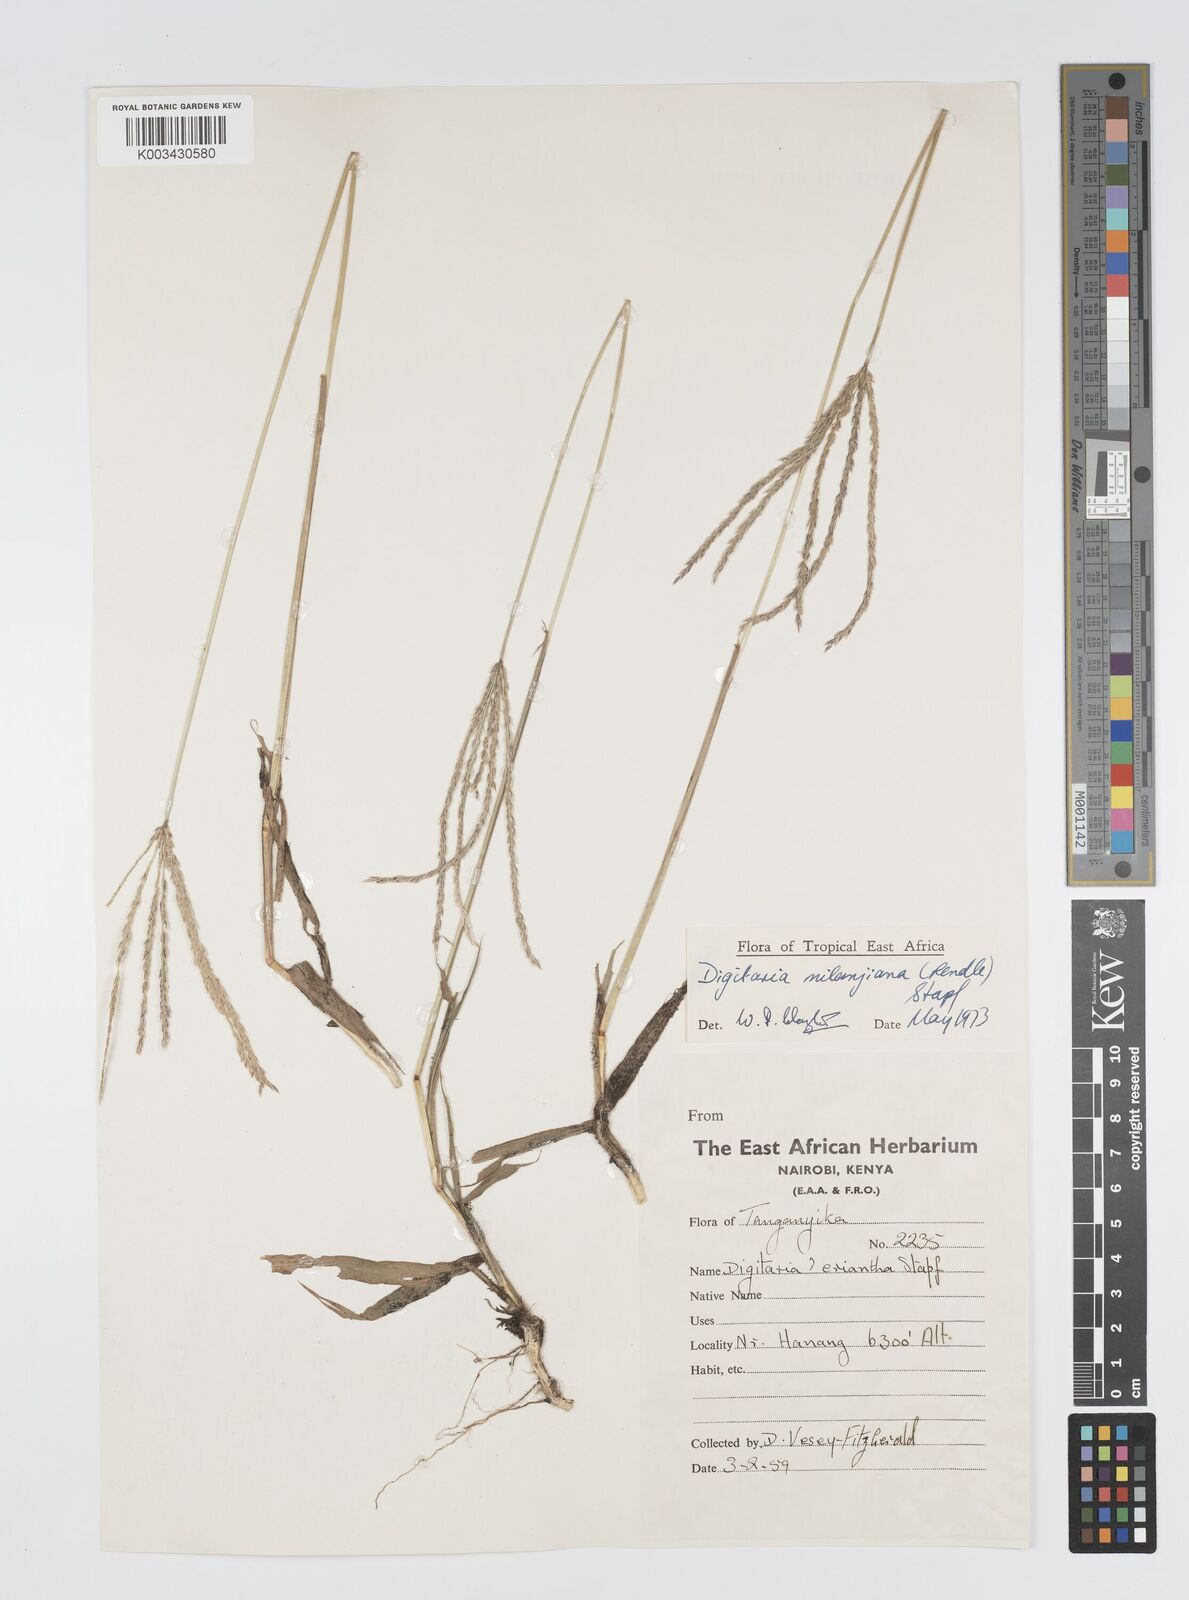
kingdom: Plantae
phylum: Tracheophyta
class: Liliopsida
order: Poales
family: Poaceae
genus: Digitaria
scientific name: Digitaria milanjiana
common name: Madagascar crabgrass
